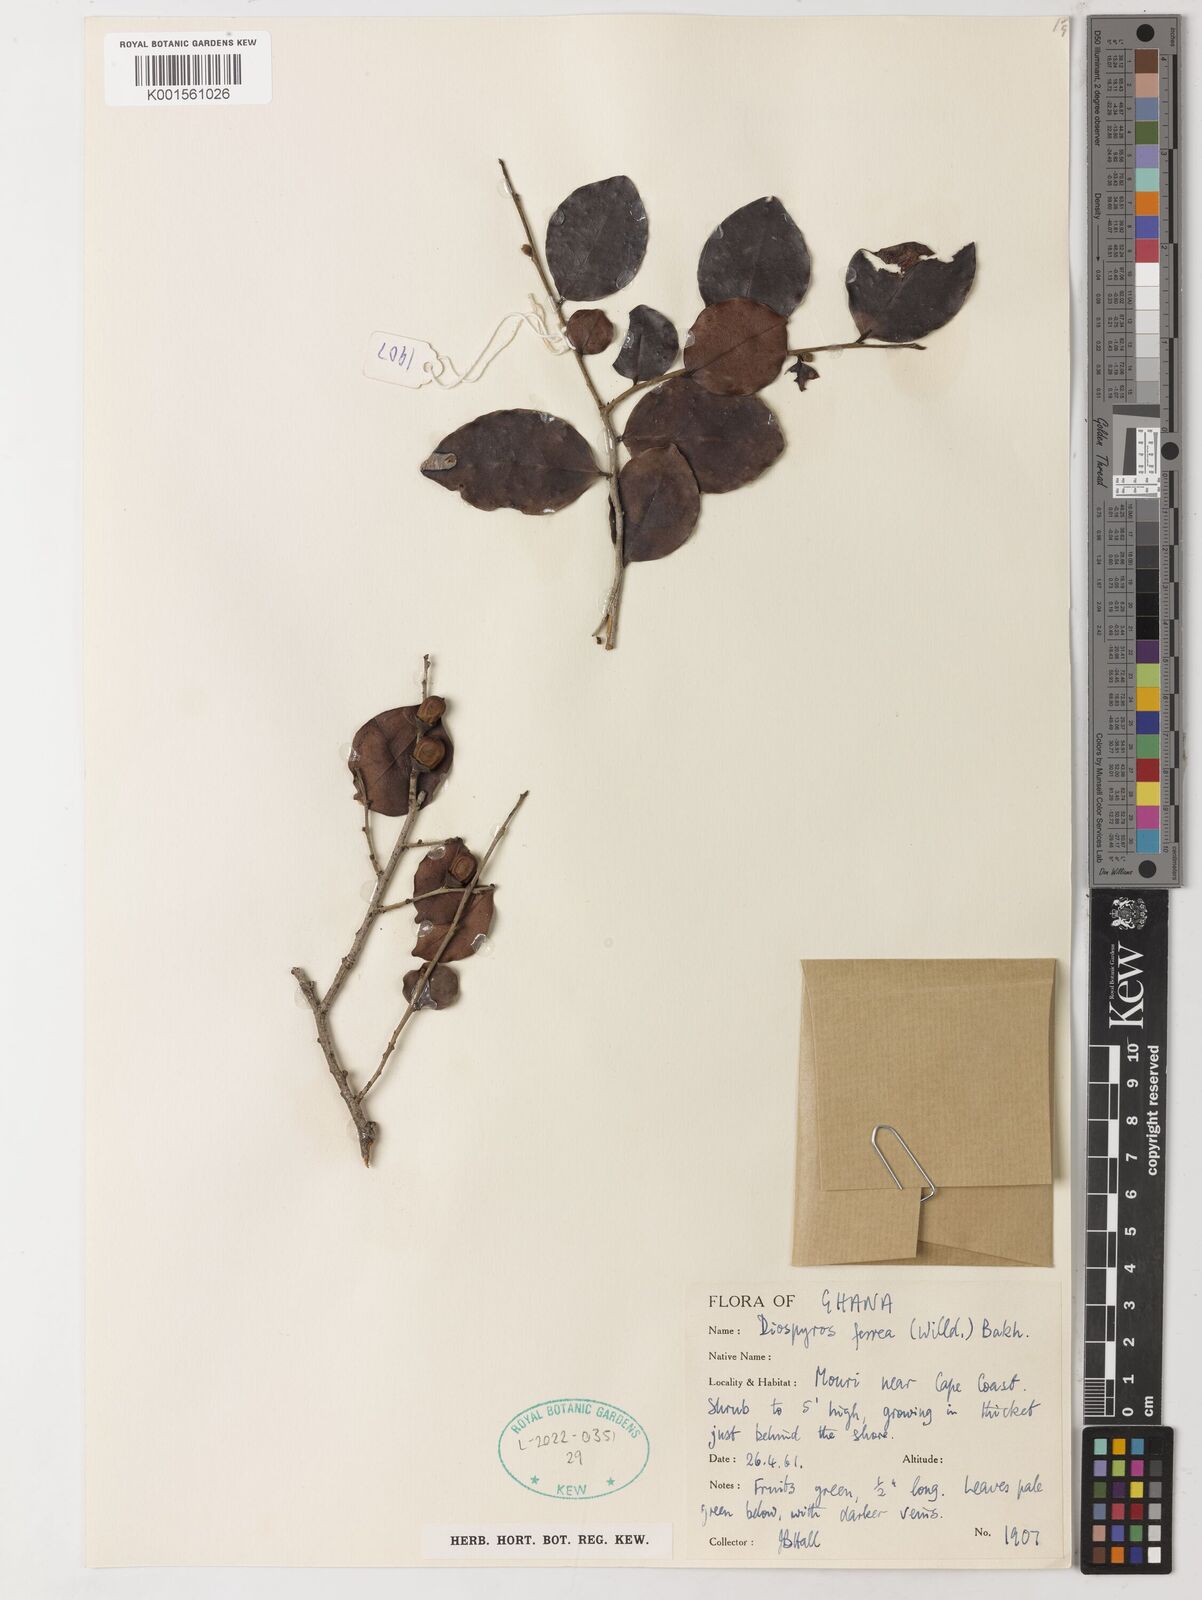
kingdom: Plantae
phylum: Tracheophyta
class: Magnoliopsida
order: Ericales
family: Ebenaceae
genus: Diospyros
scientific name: Diospyros ferrea
